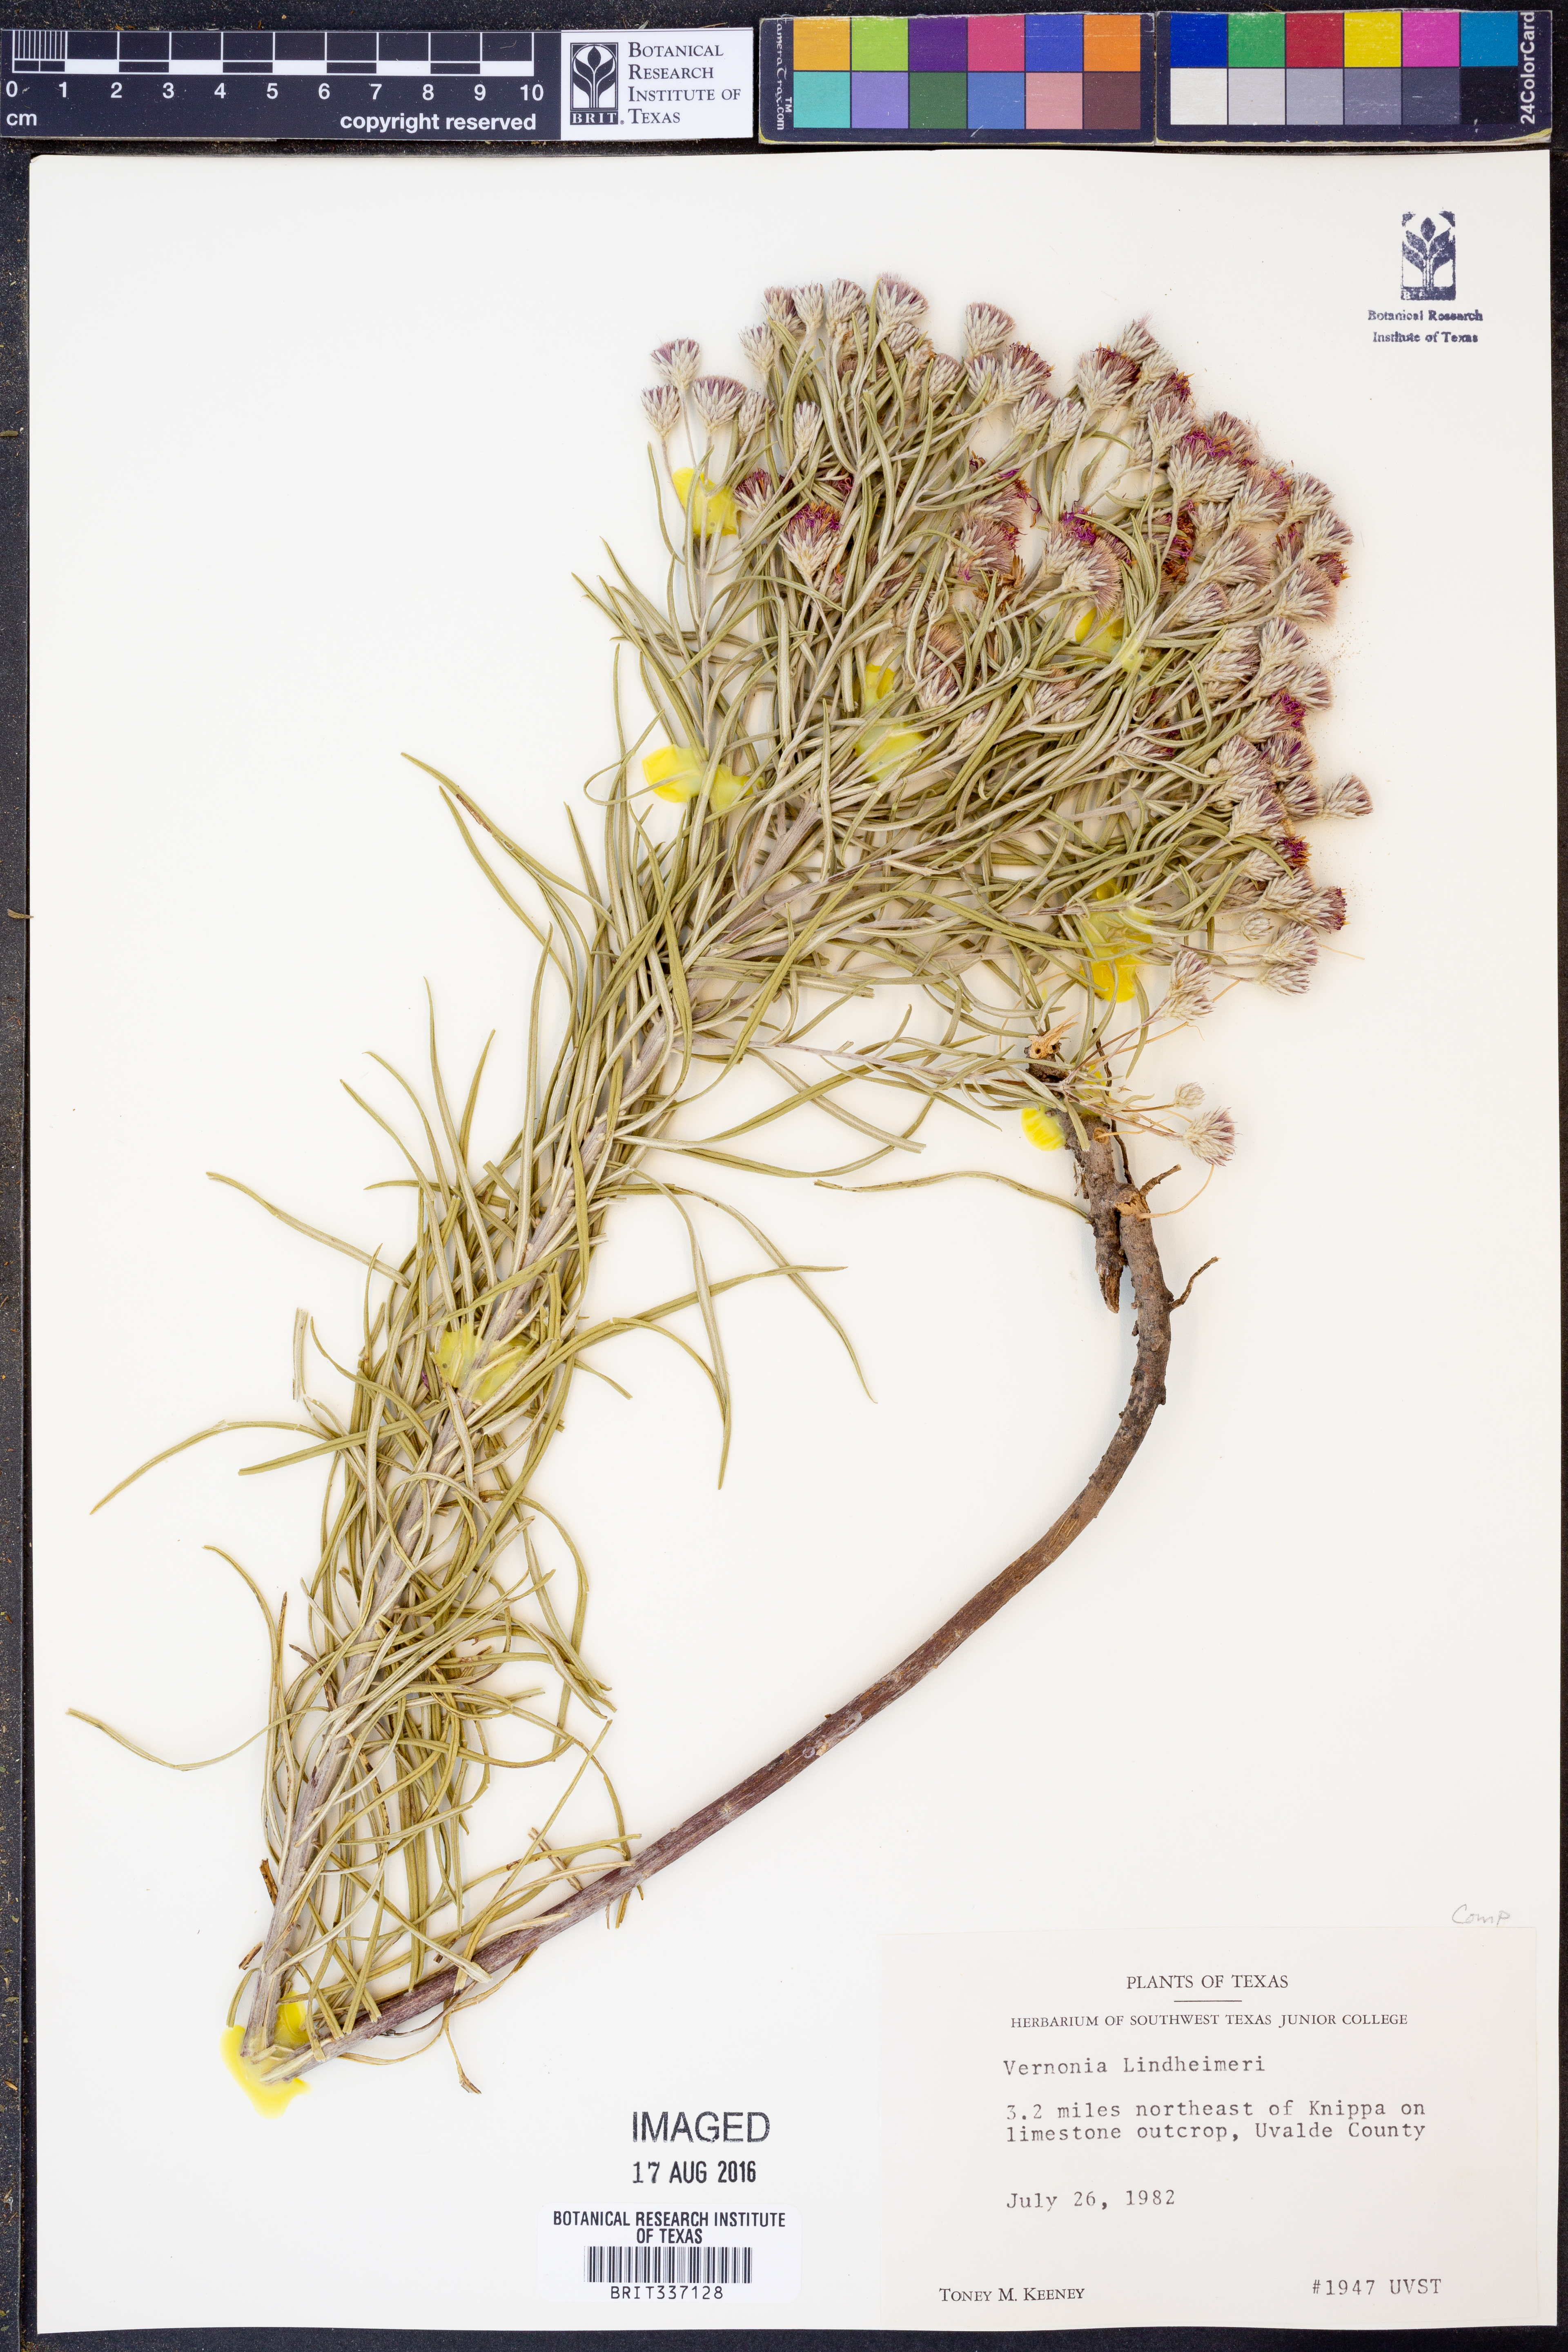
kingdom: Plantae
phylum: Tracheophyta
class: Magnoliopsida
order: Asterales
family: Asteraceae
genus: Vernonia
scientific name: Vernonia lindheimeri
